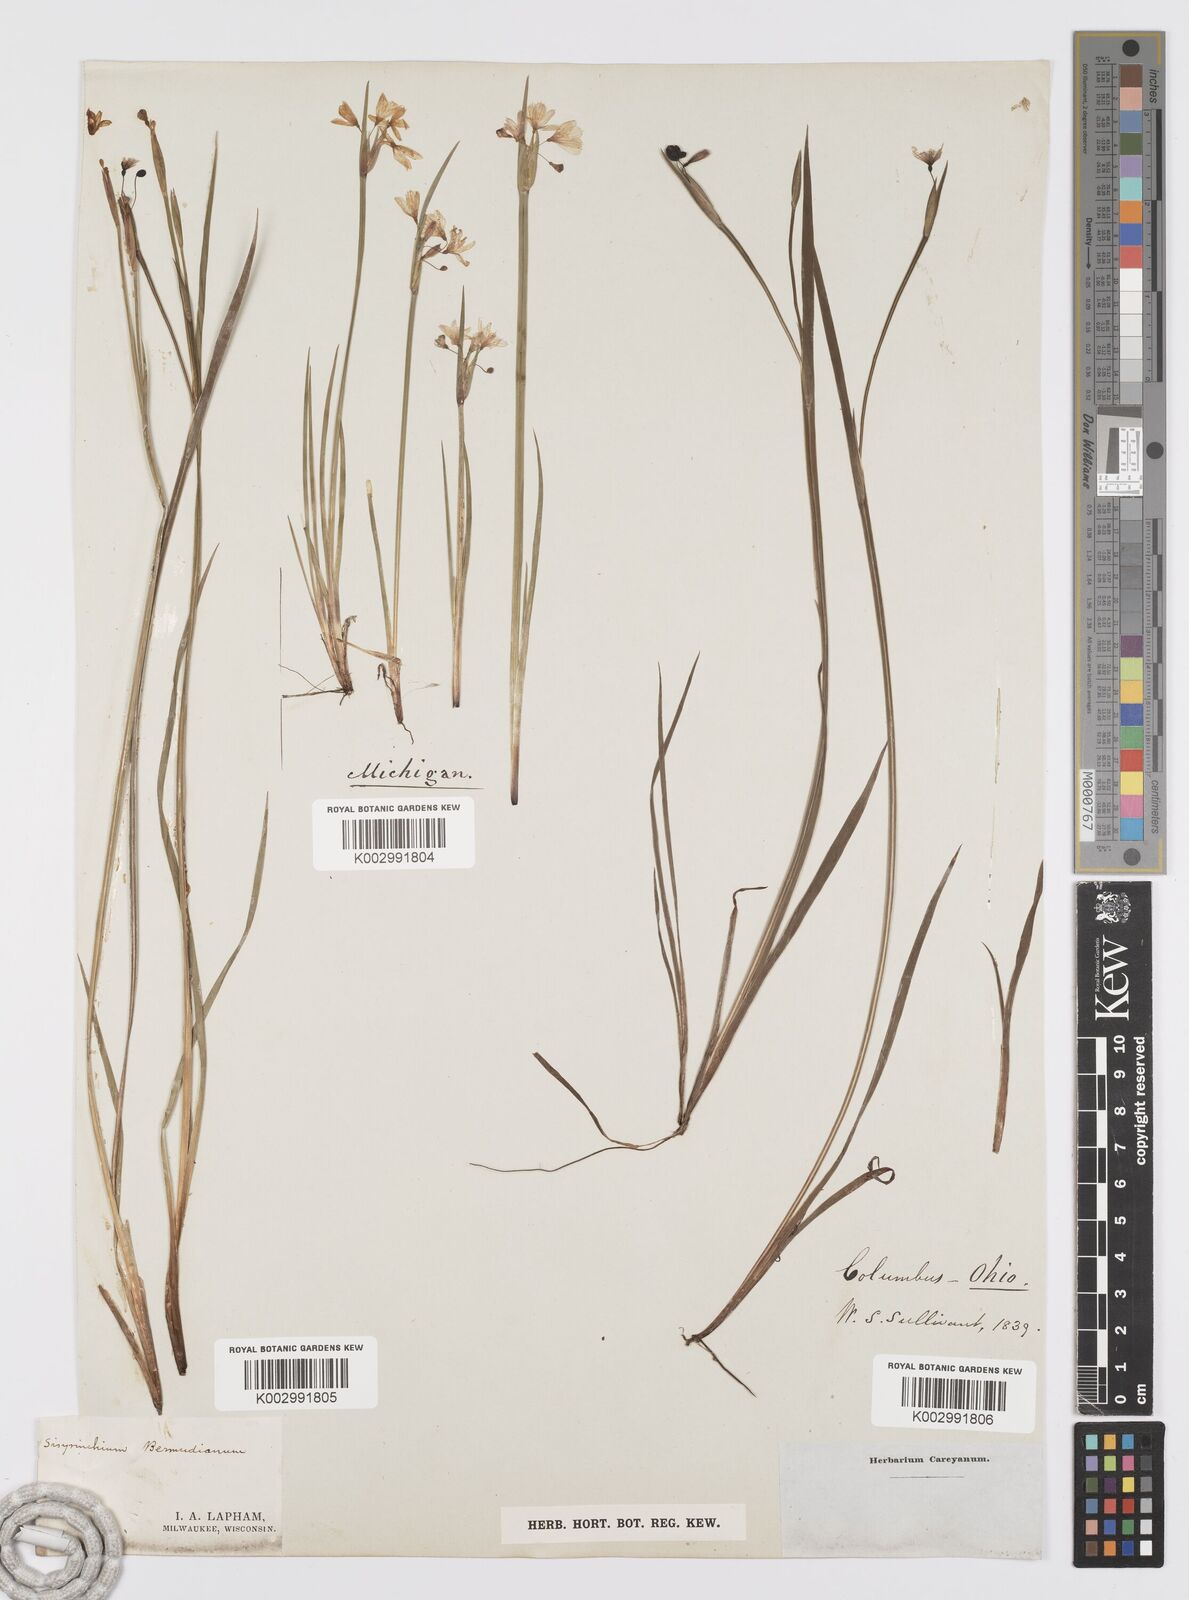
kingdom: Plantae
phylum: Tracheophyta
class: Liliopsida
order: Asparagales
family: Iridaceae
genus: Sisyrinchium
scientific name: Sisyrinchium bermudiana
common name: Blue-eyed-grass
